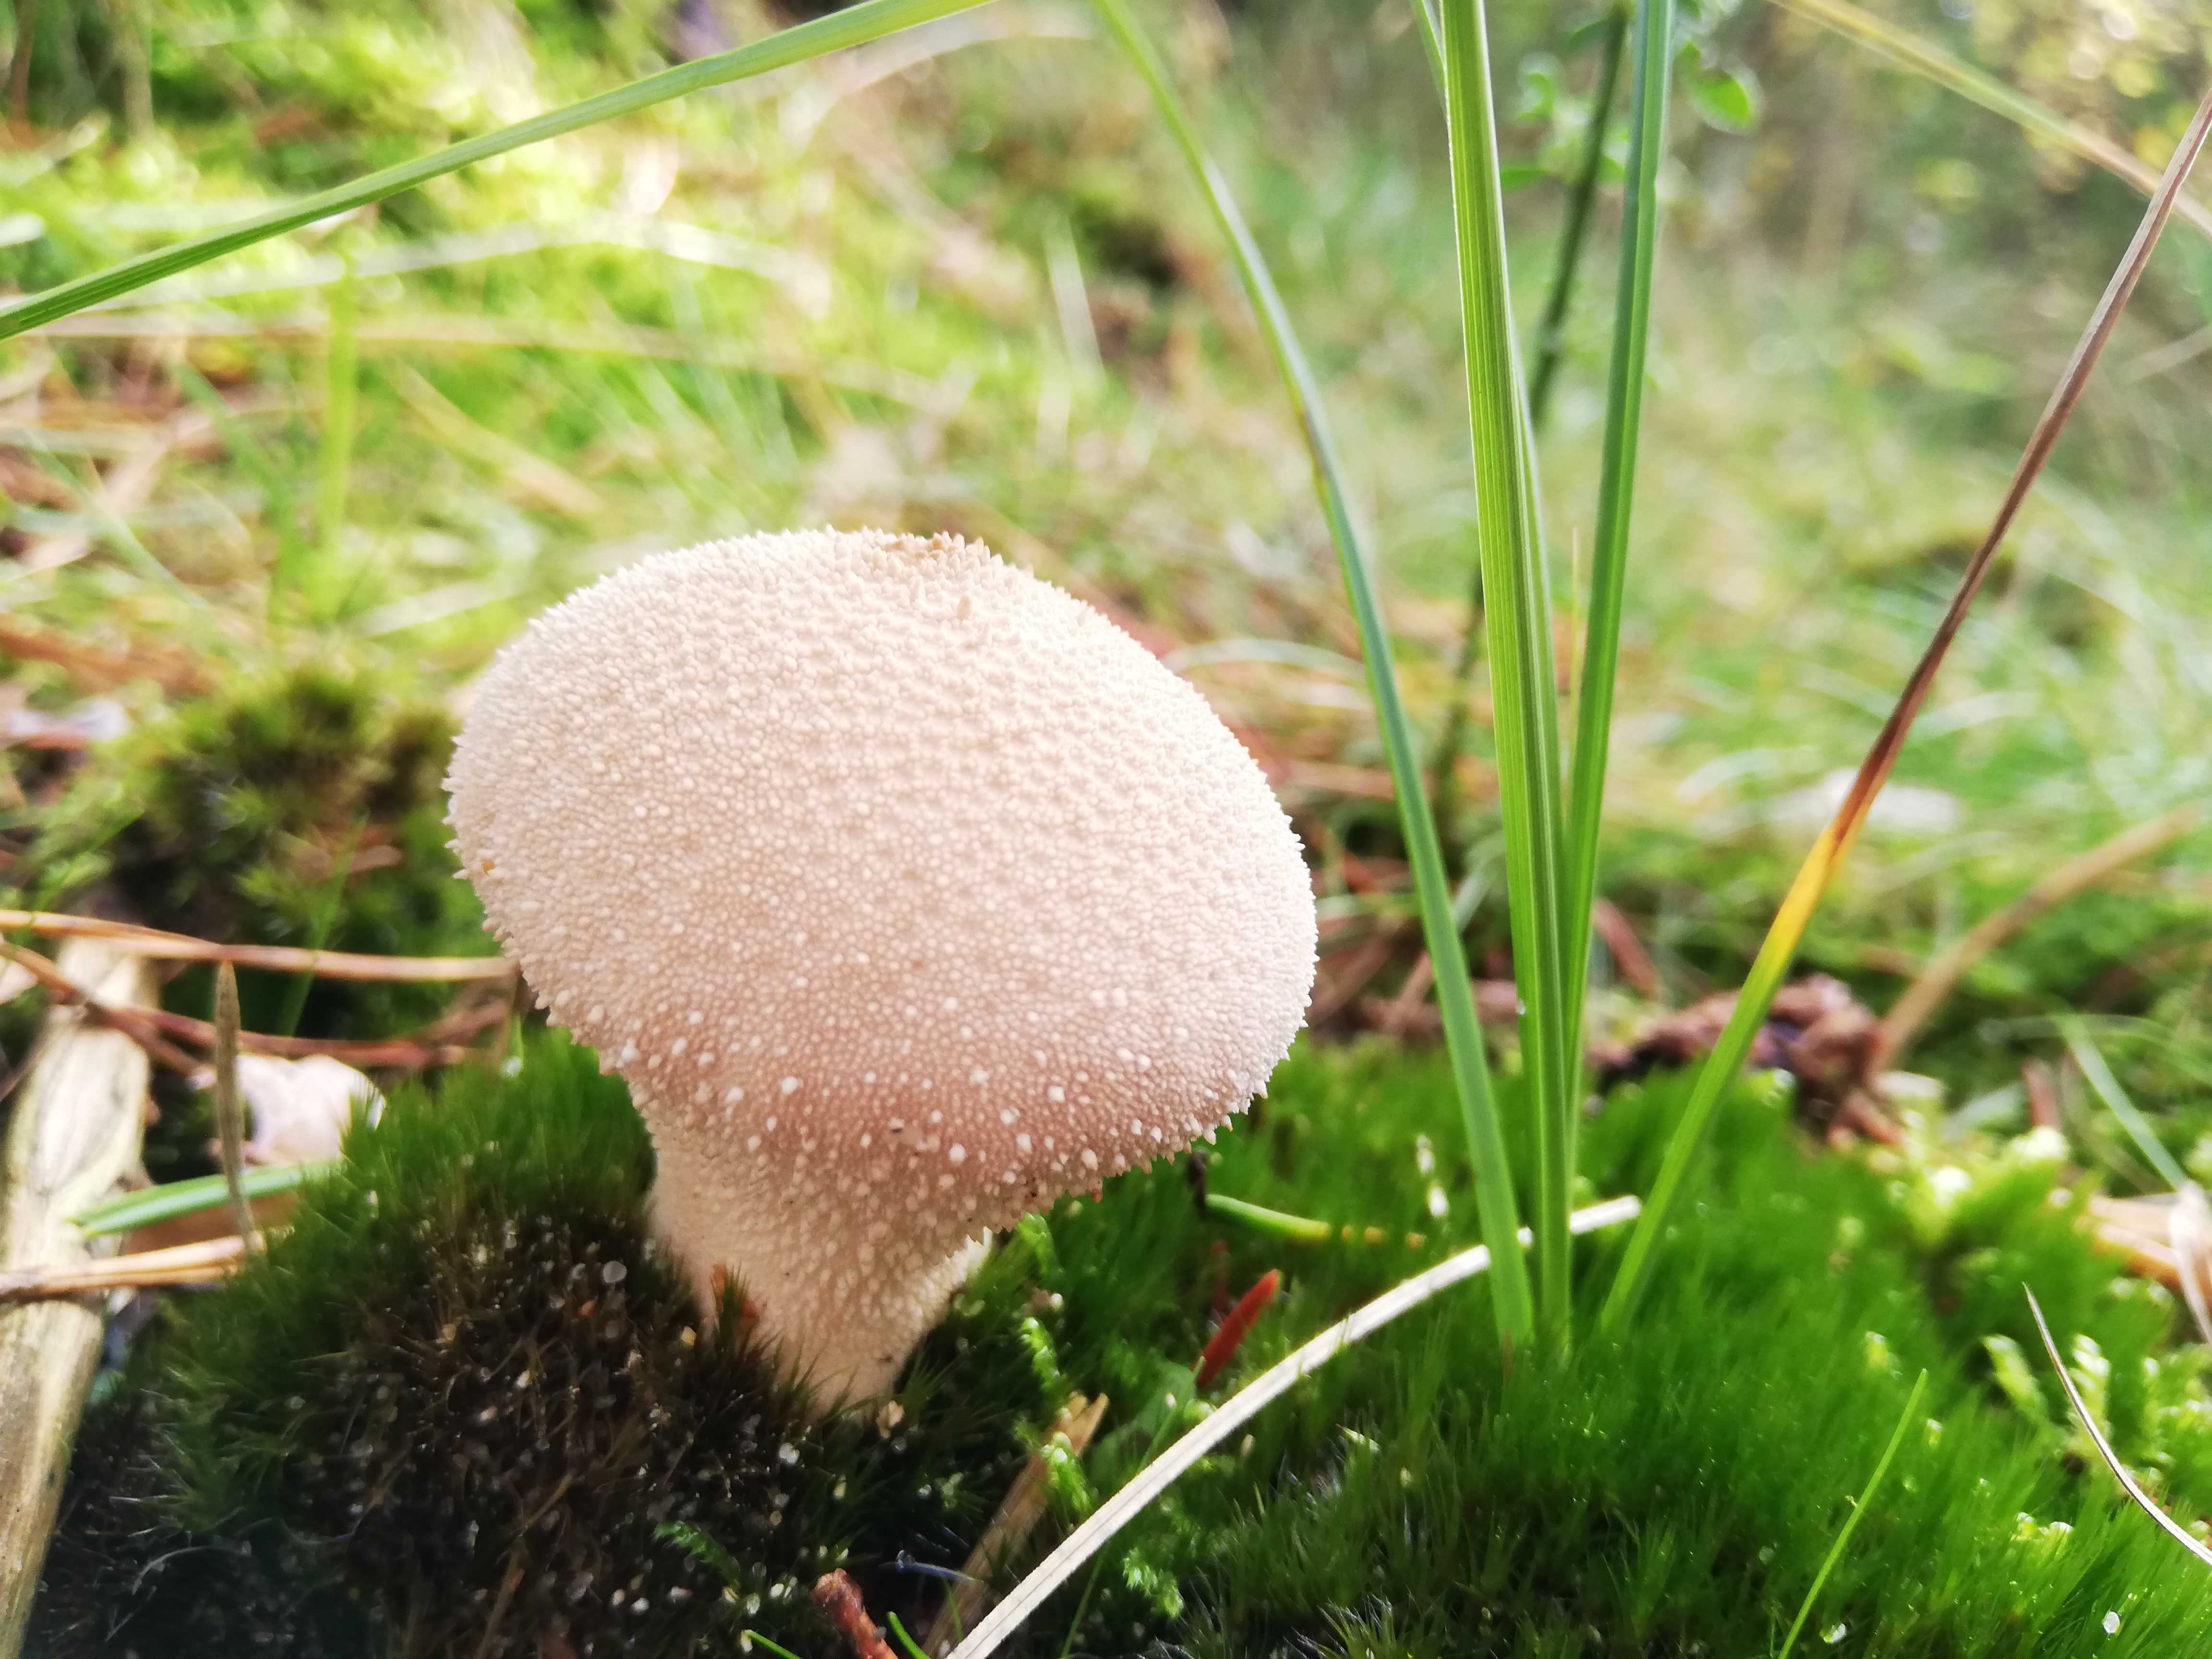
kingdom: Fungi
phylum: Basidiomycota
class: Agaricomycetes
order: Agaricales
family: Lycoperdaceae
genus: Lycoperdon
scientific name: Lycoperdon perlatum
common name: krystal-støvbold
